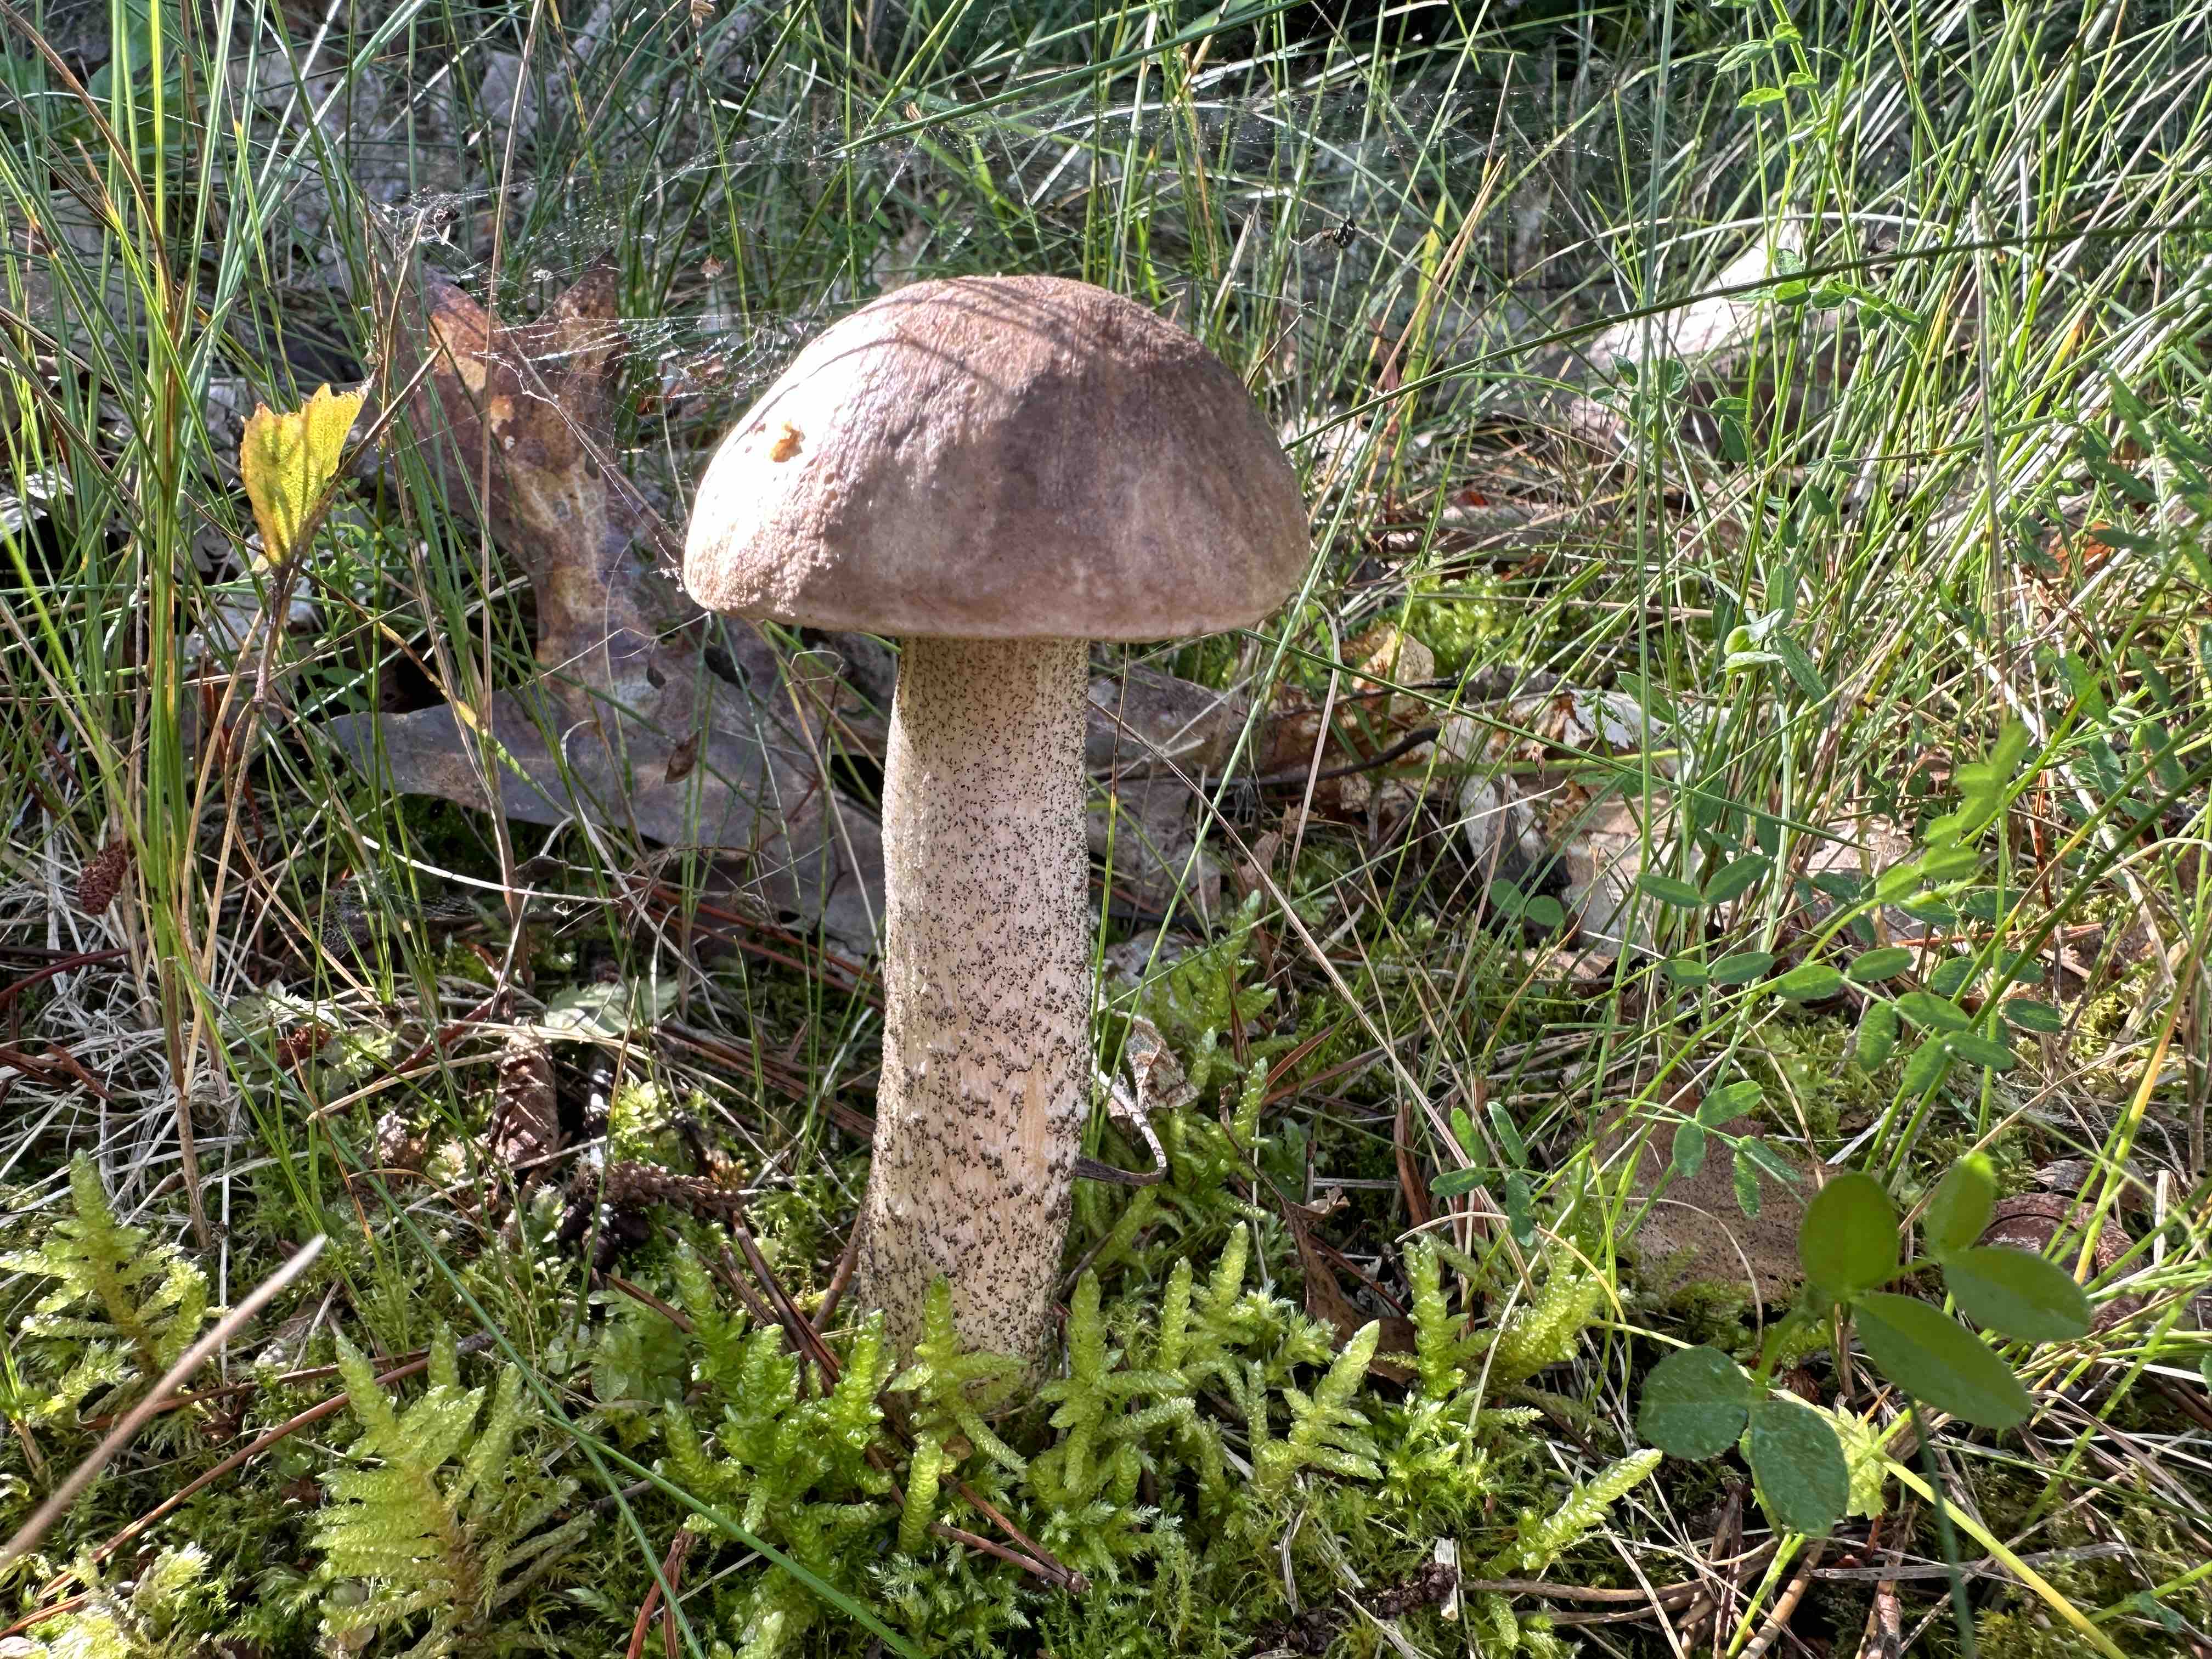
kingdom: Fungi
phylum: Basidiomycota
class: Agaricomycetes
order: Boletales
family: Boletaceae
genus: Leccinum
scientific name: Leccinum scabrum
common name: brun skælrørhat
